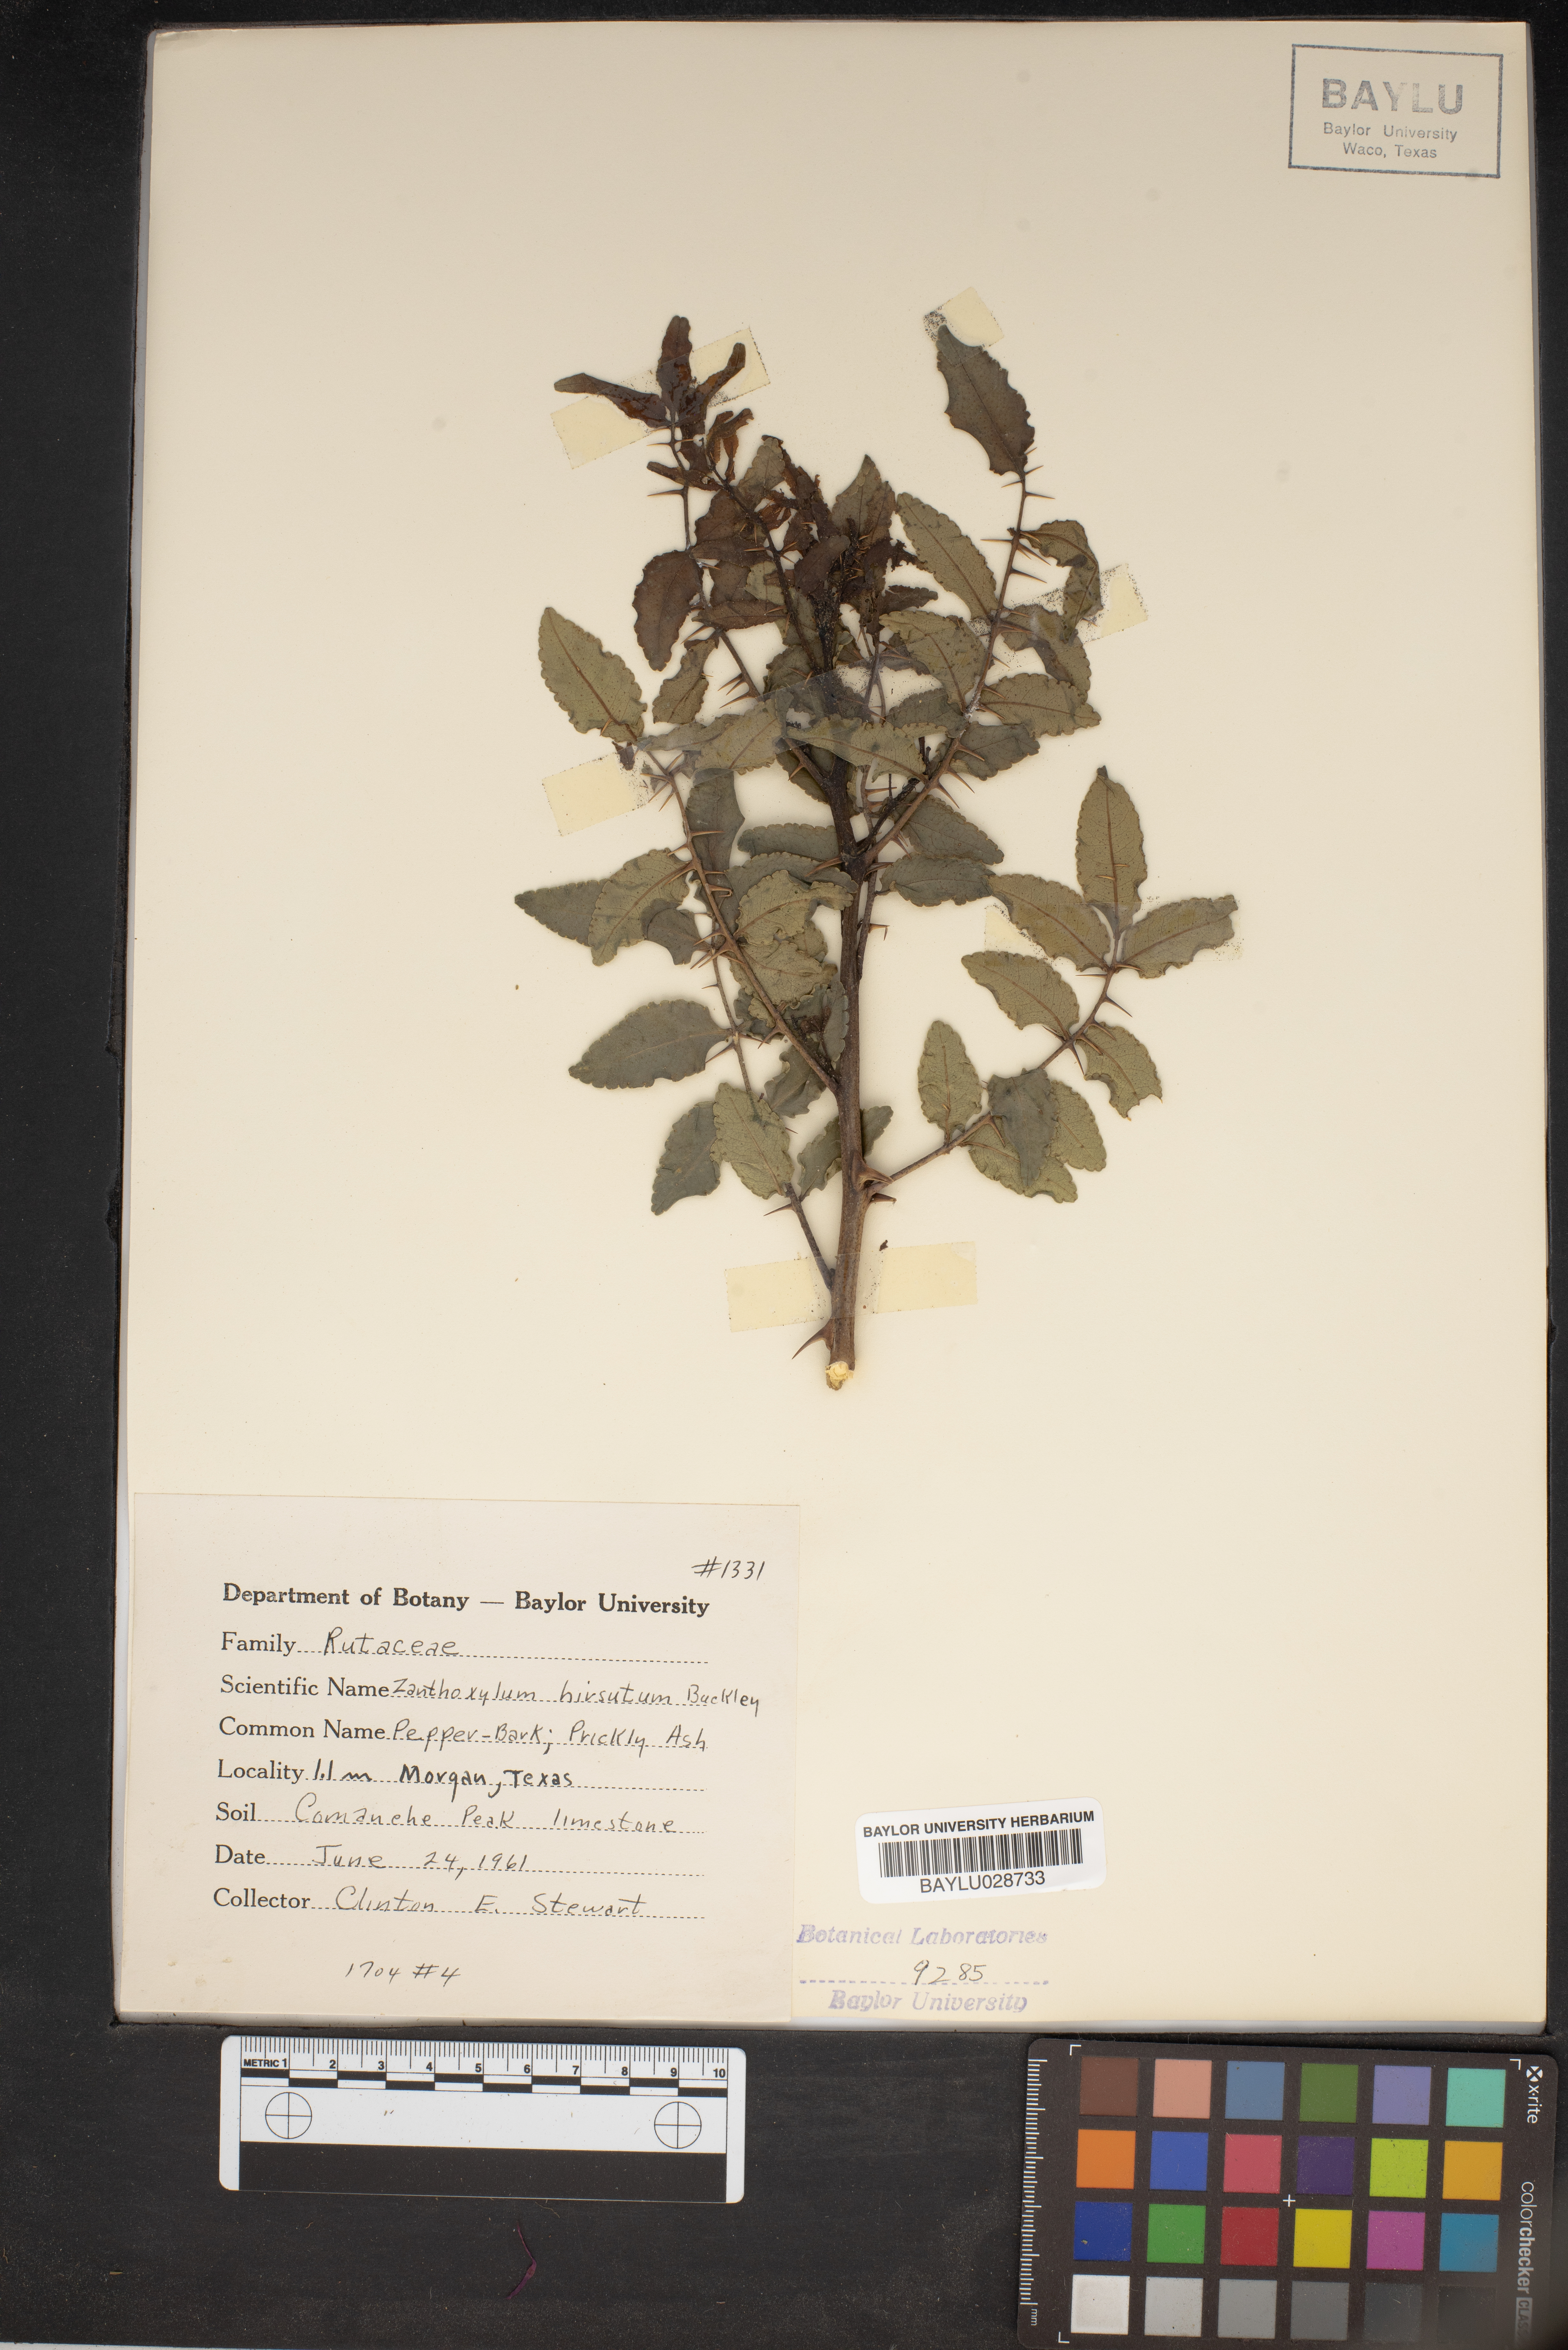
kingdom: Plantae
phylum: Tracheophyta
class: Magnoliopsida
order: Sapindales
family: Rutaceae
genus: Zanthoxylum
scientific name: Zanthoxylum clava-herculis
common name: Hercules'-club
